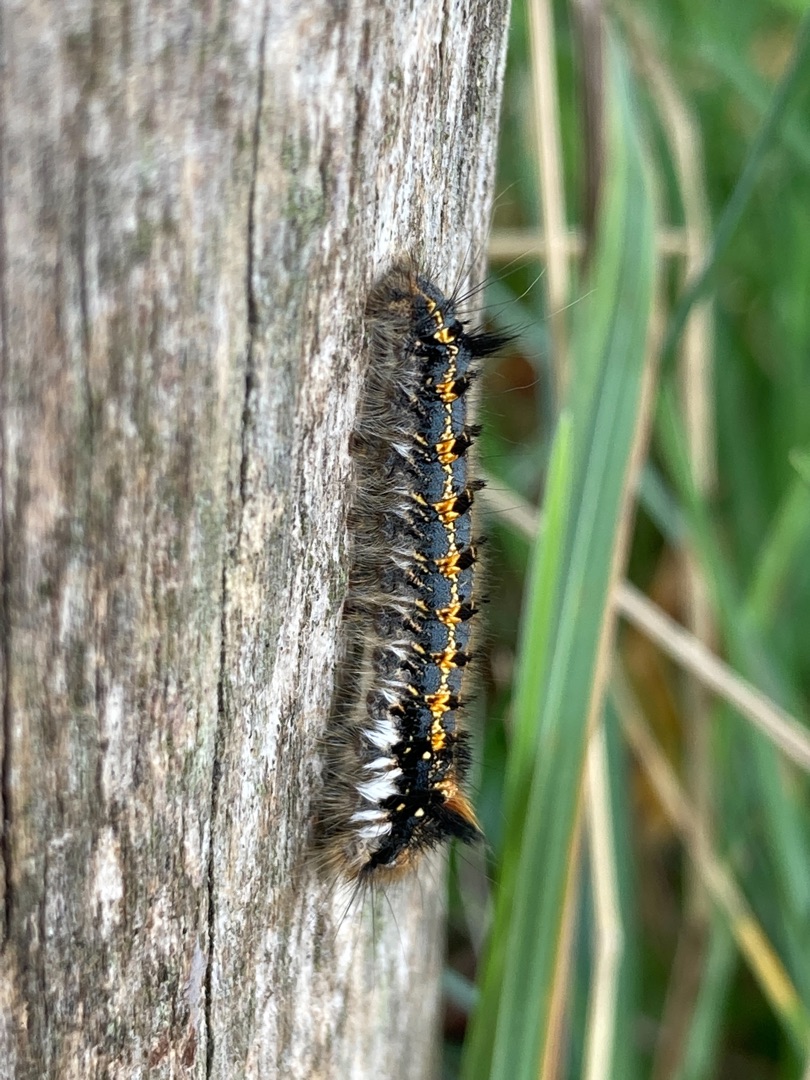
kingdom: Animalia
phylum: Arthropoda
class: Insecta
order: Lepidoptera
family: Lasiocampidae
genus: Euthrix
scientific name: Euthrix potatoria
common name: Græsspinder
